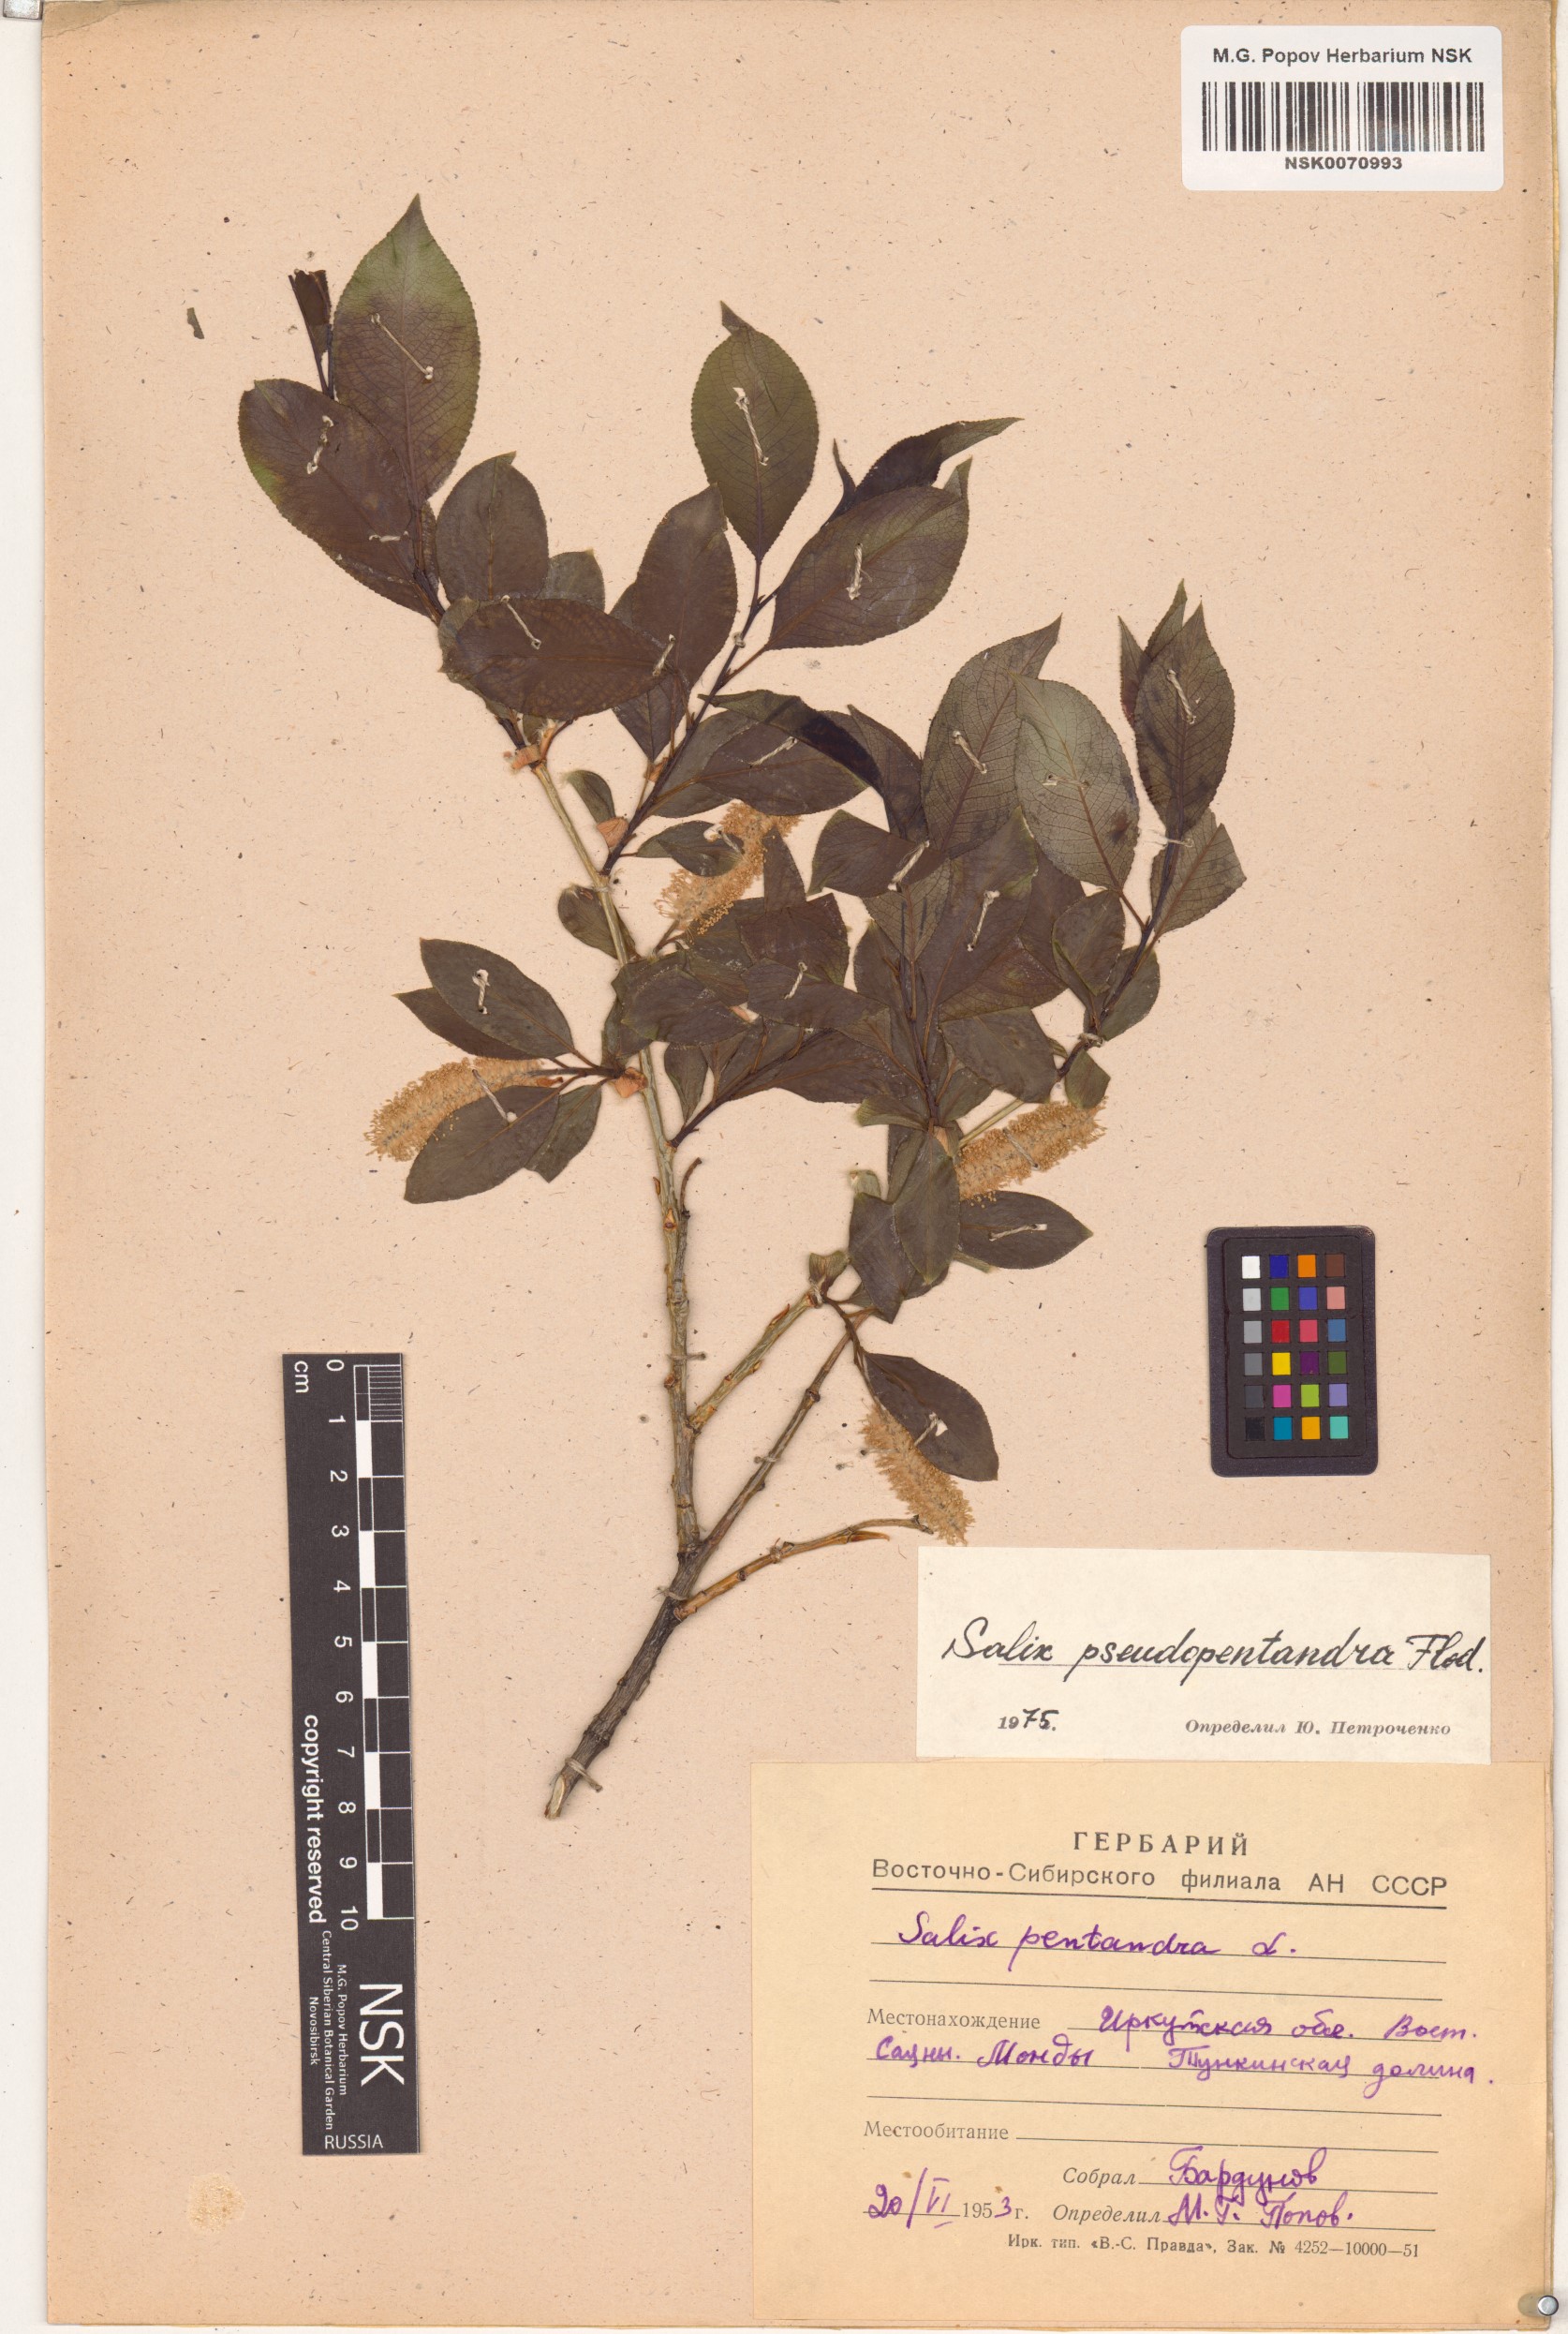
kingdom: Plantae
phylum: Tracheophyta
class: Magnoliopsida
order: Malpighiales
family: Salicaceae
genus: Salix
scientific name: Salix pseudopentandra
